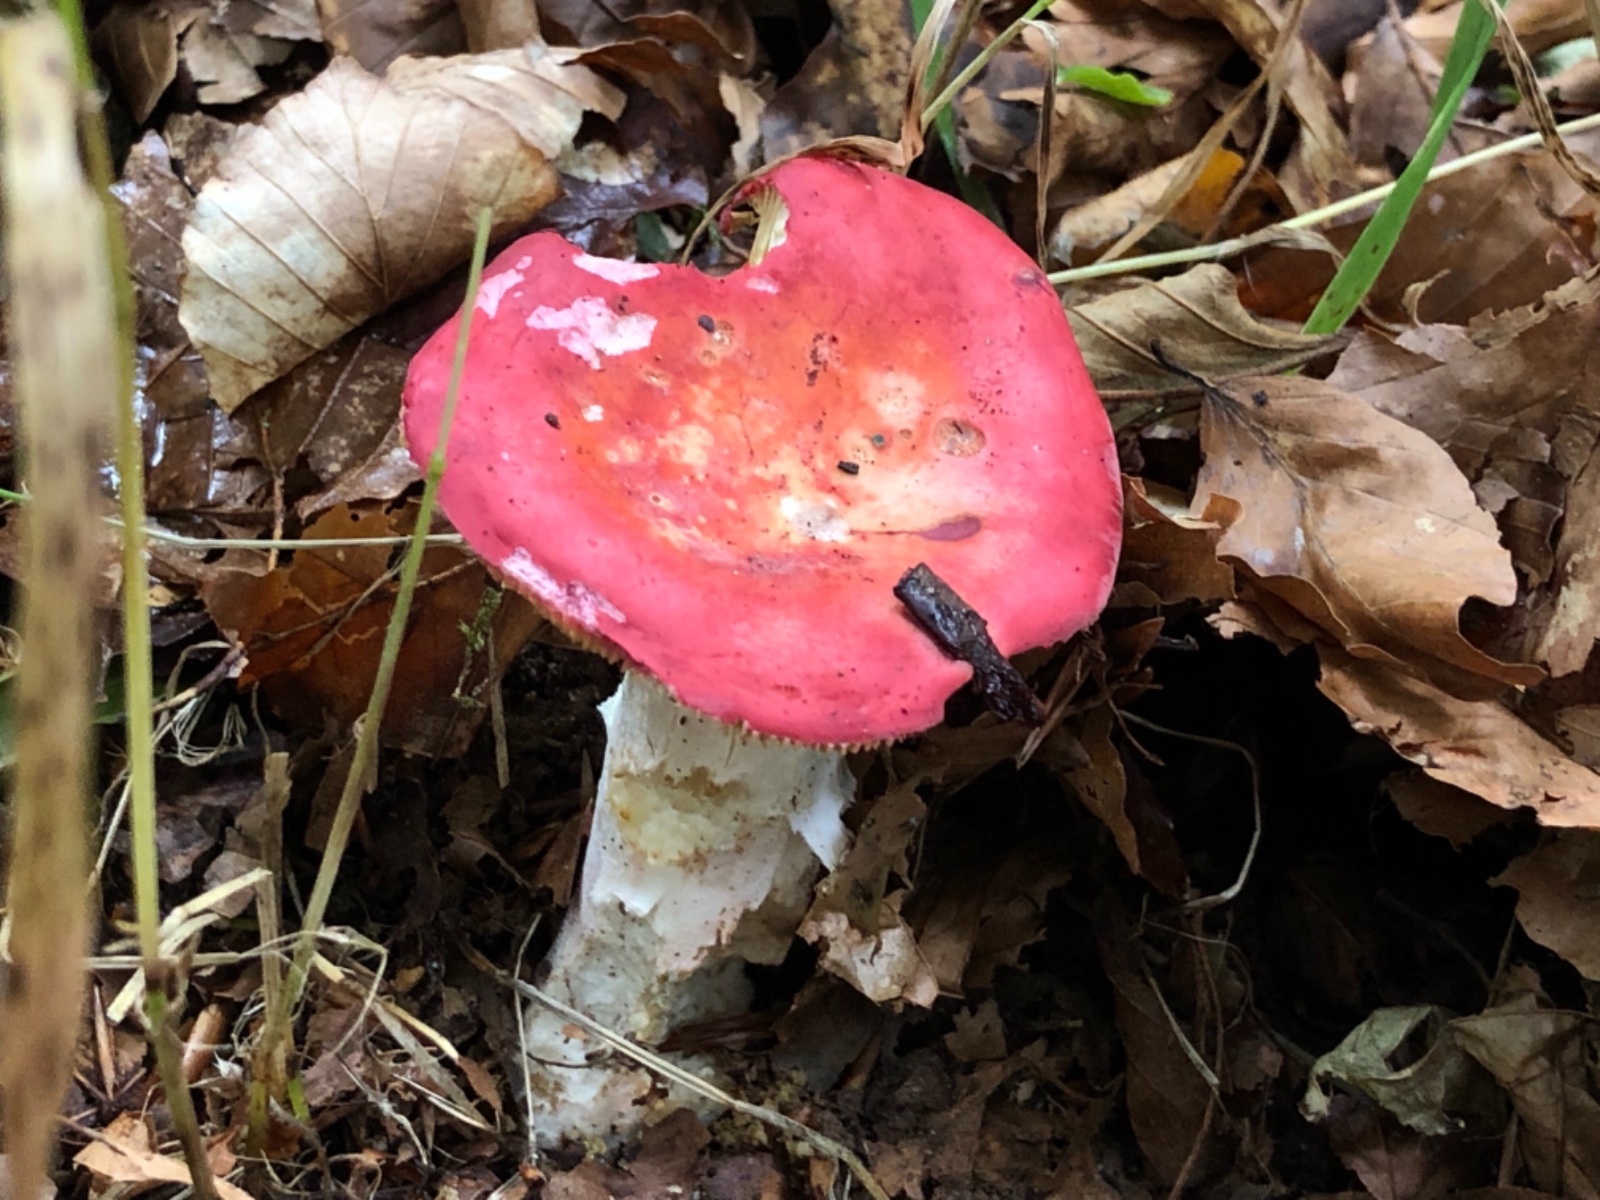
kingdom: Fungi
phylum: Basidiomycota
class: Agaricomycetes
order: Russulales
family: Russulaceae
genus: Russula
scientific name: Russula
